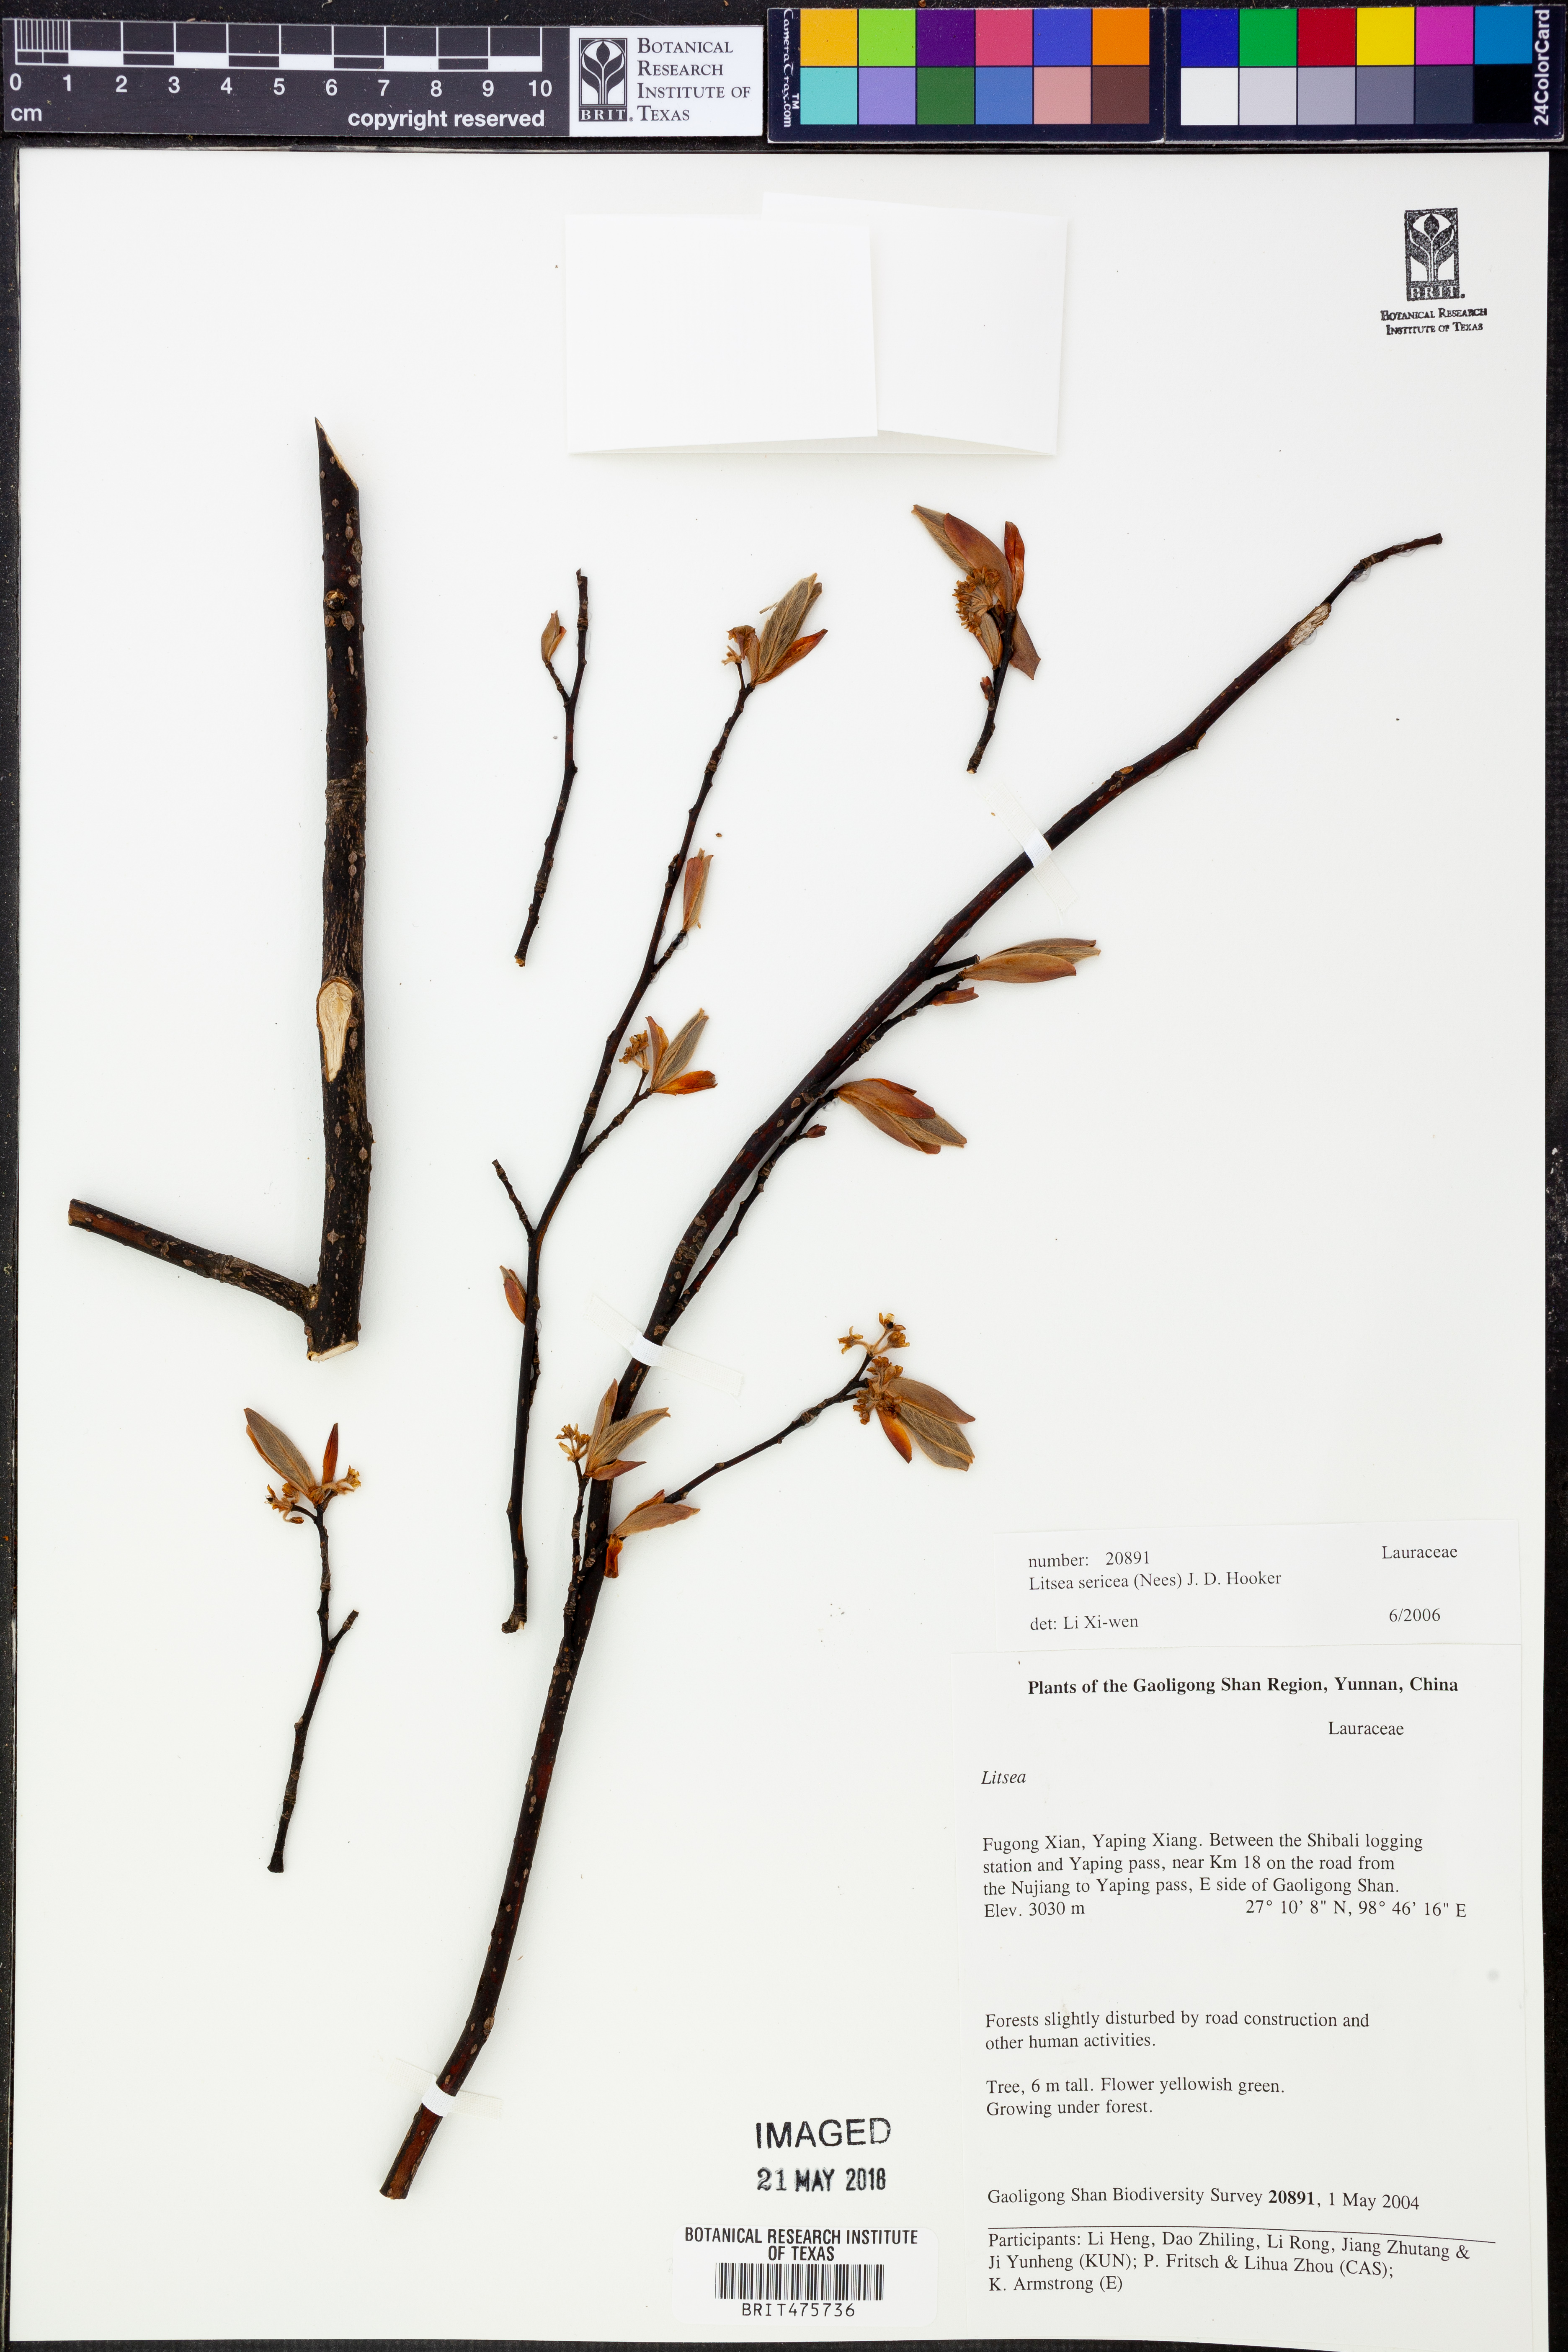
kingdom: Plantae
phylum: Tracheophyta
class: Magnoliopsida
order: Laurales
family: Lauraceae
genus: Litsea
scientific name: Litsea sericea
